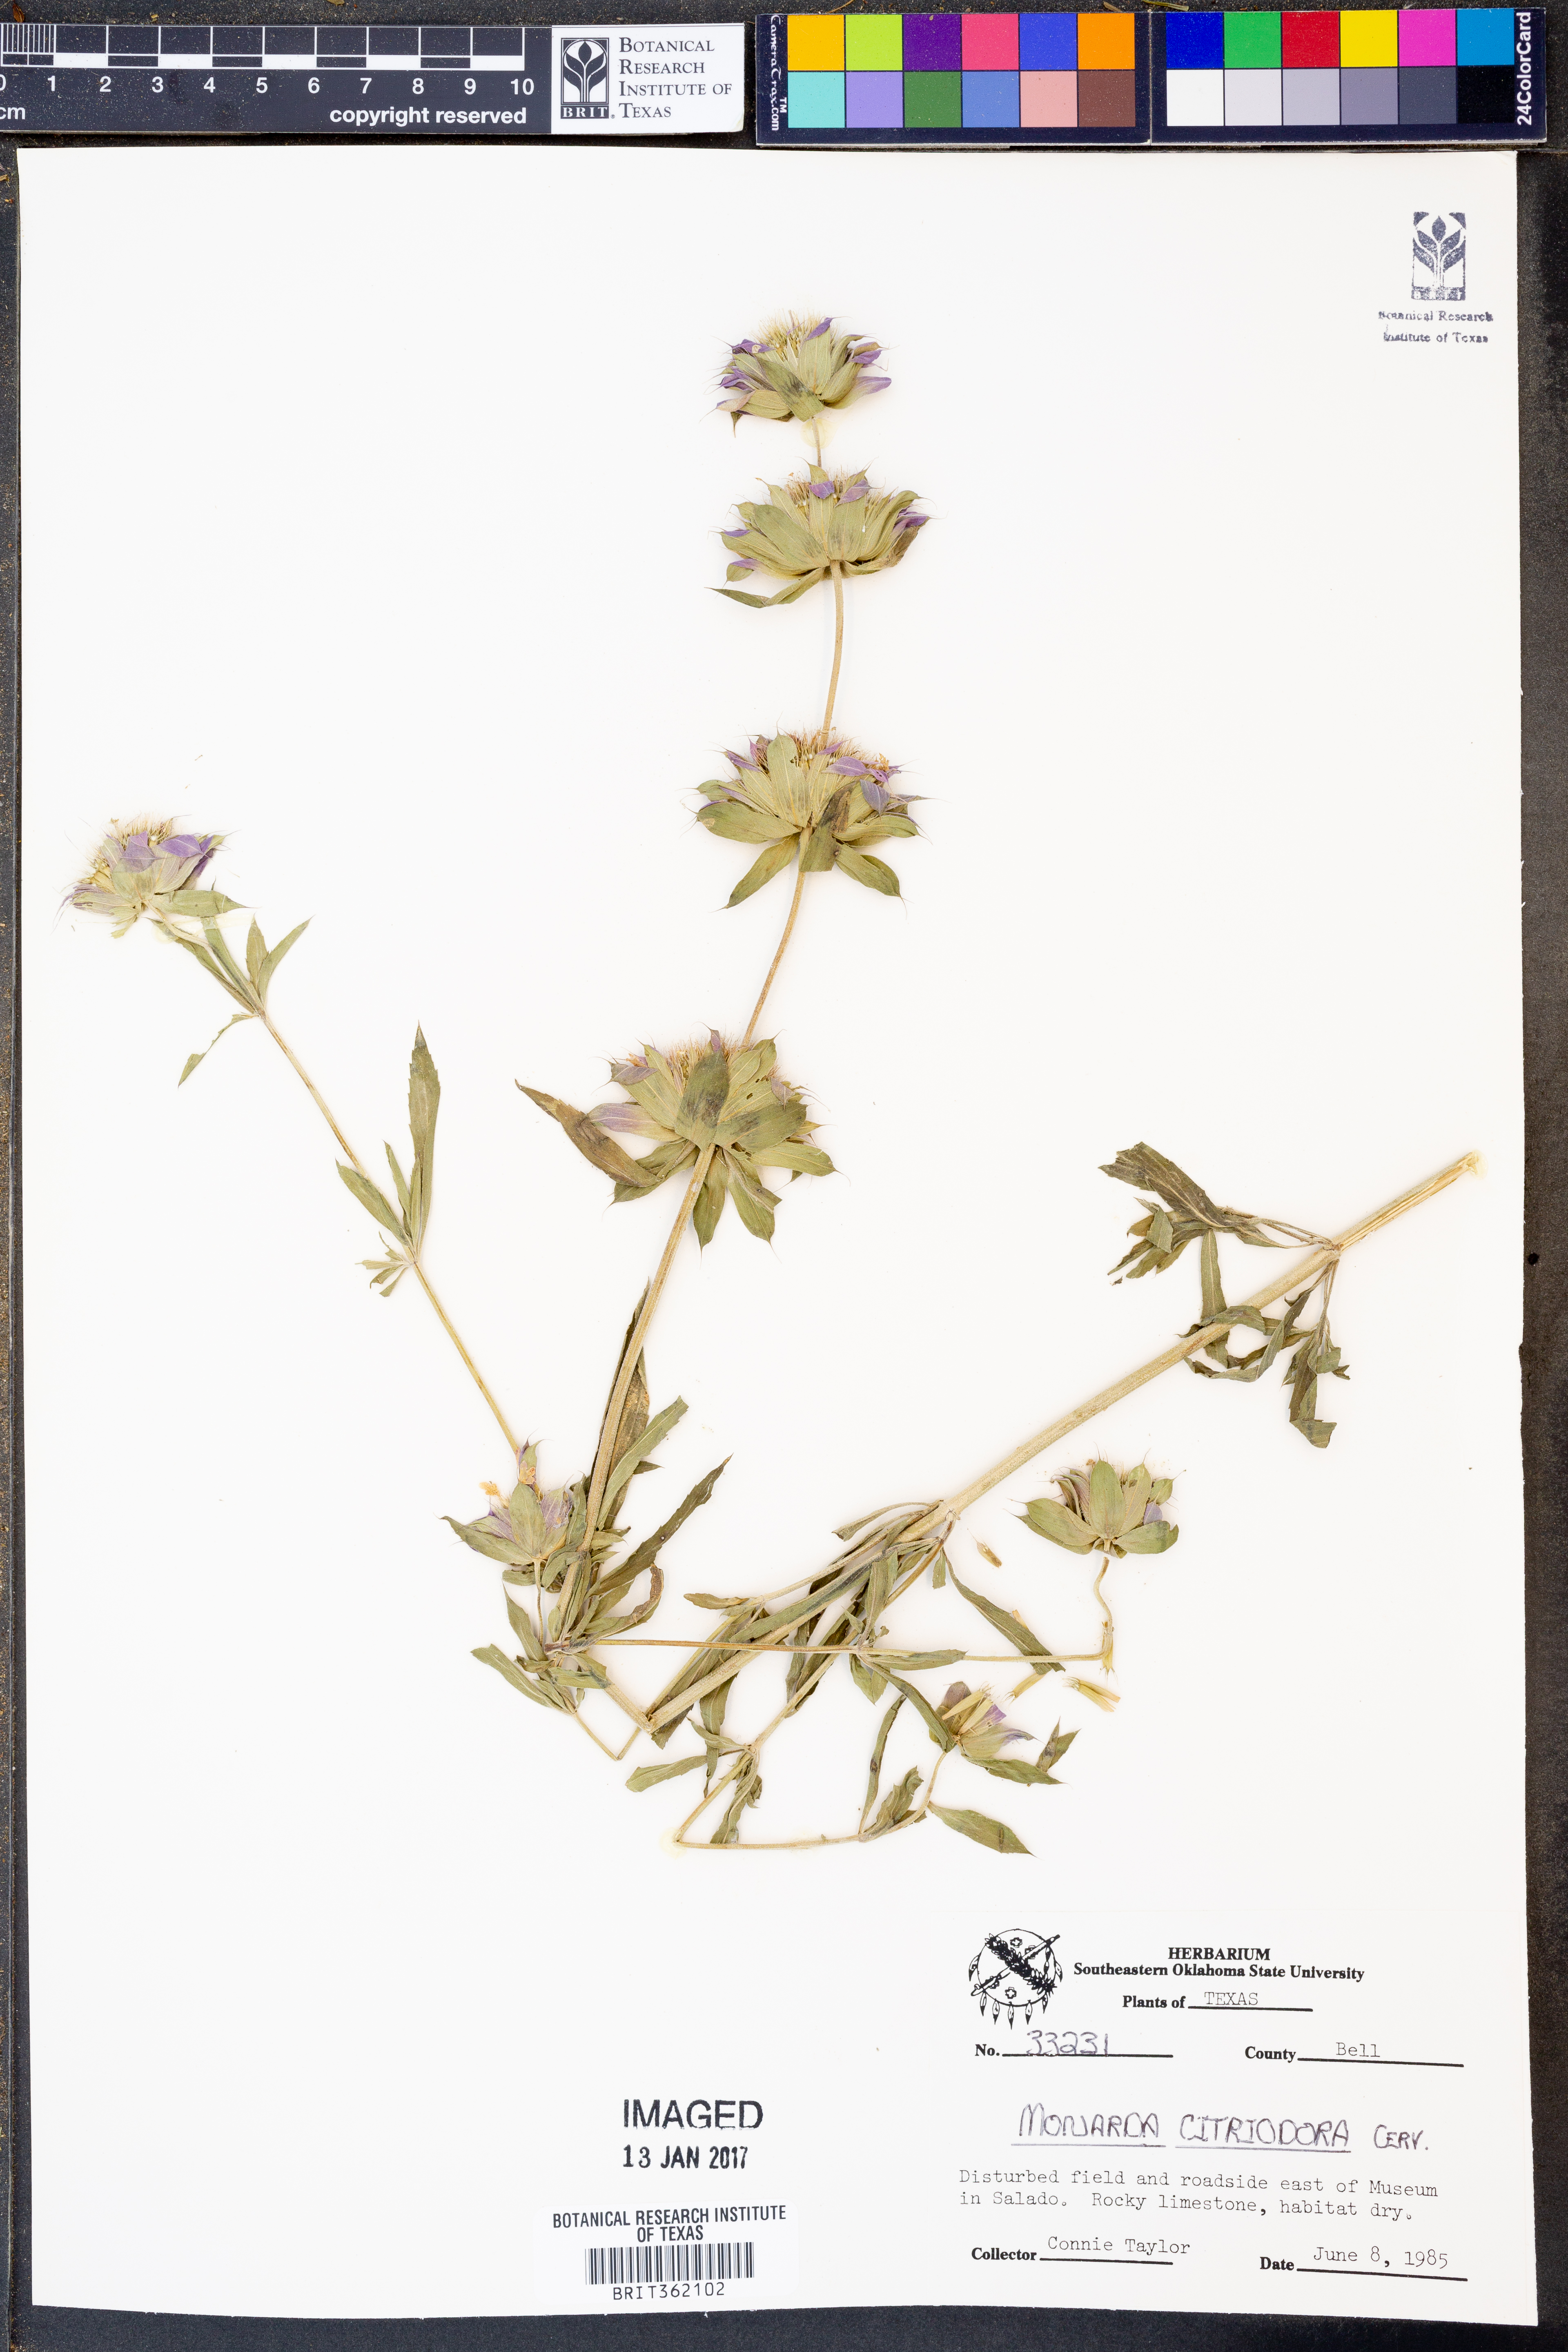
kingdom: Plantae
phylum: Tracheophyta
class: Magnoliopsida
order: Lamiales
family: Lamiaceae
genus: Monarda
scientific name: Monarda citriodora
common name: Lemon beebalm
